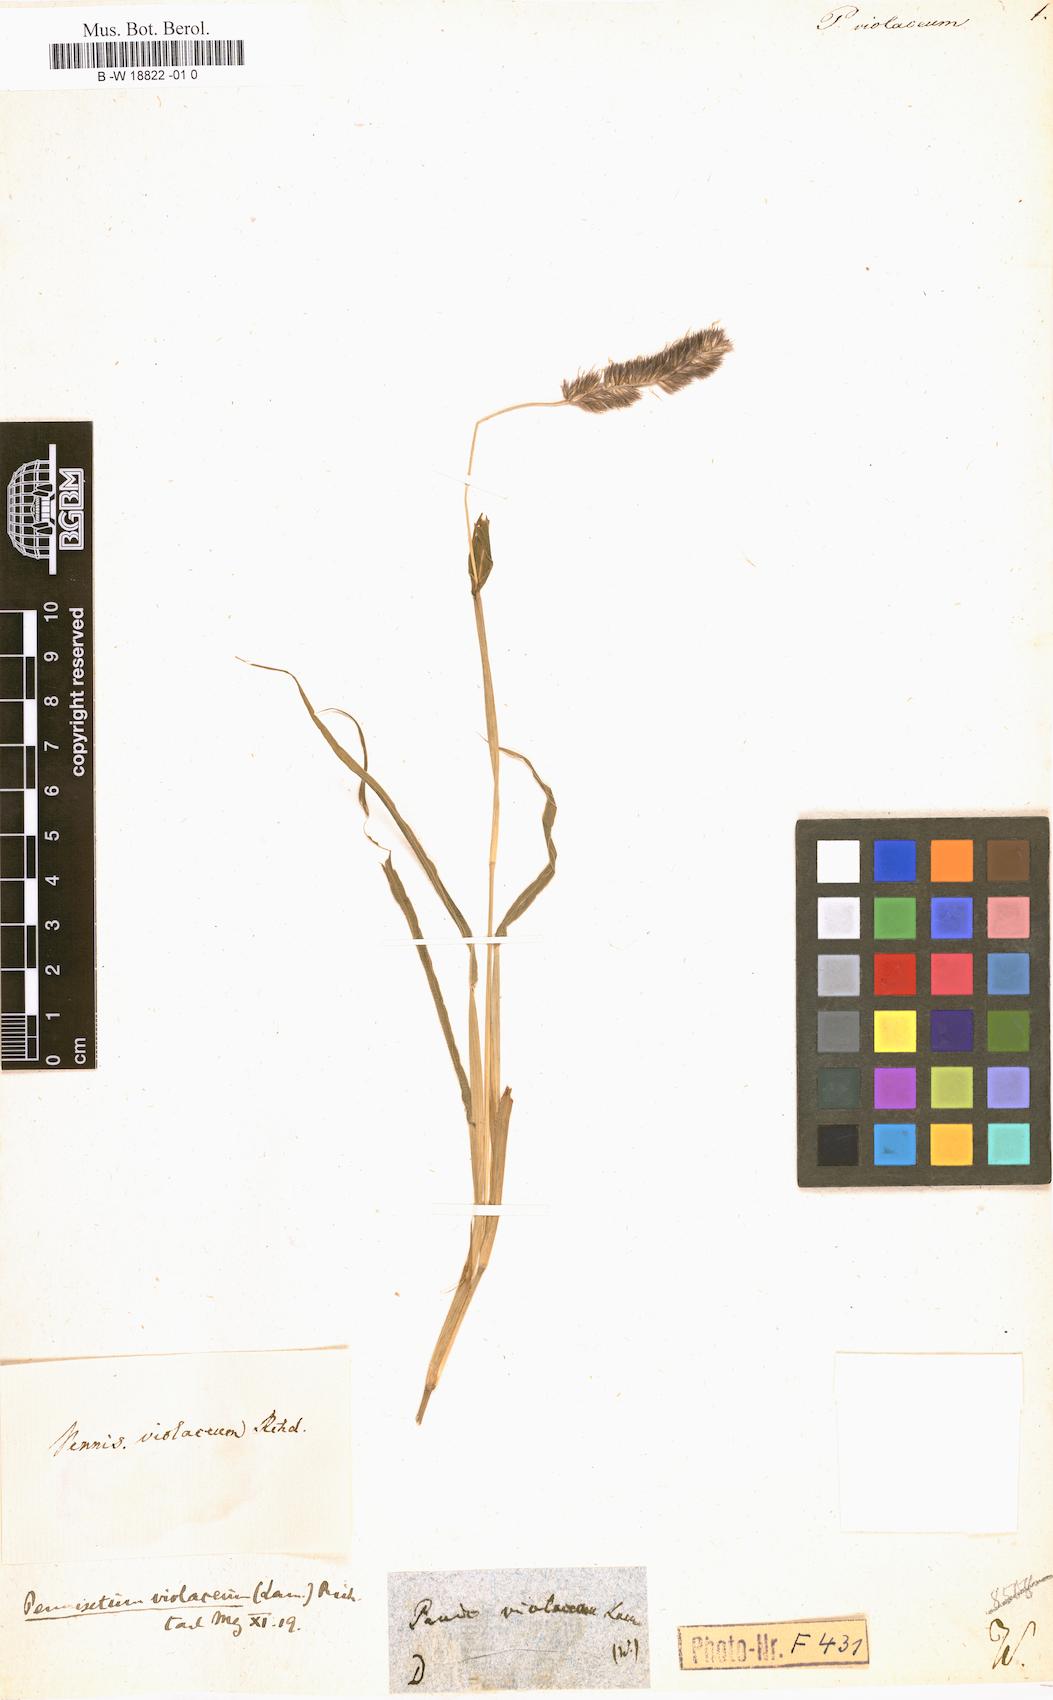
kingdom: Plantae
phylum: Tracheophyta
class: Liliopsida
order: Poales
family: Poaceae
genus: Cenchrus
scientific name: Cenchrus violaceus
